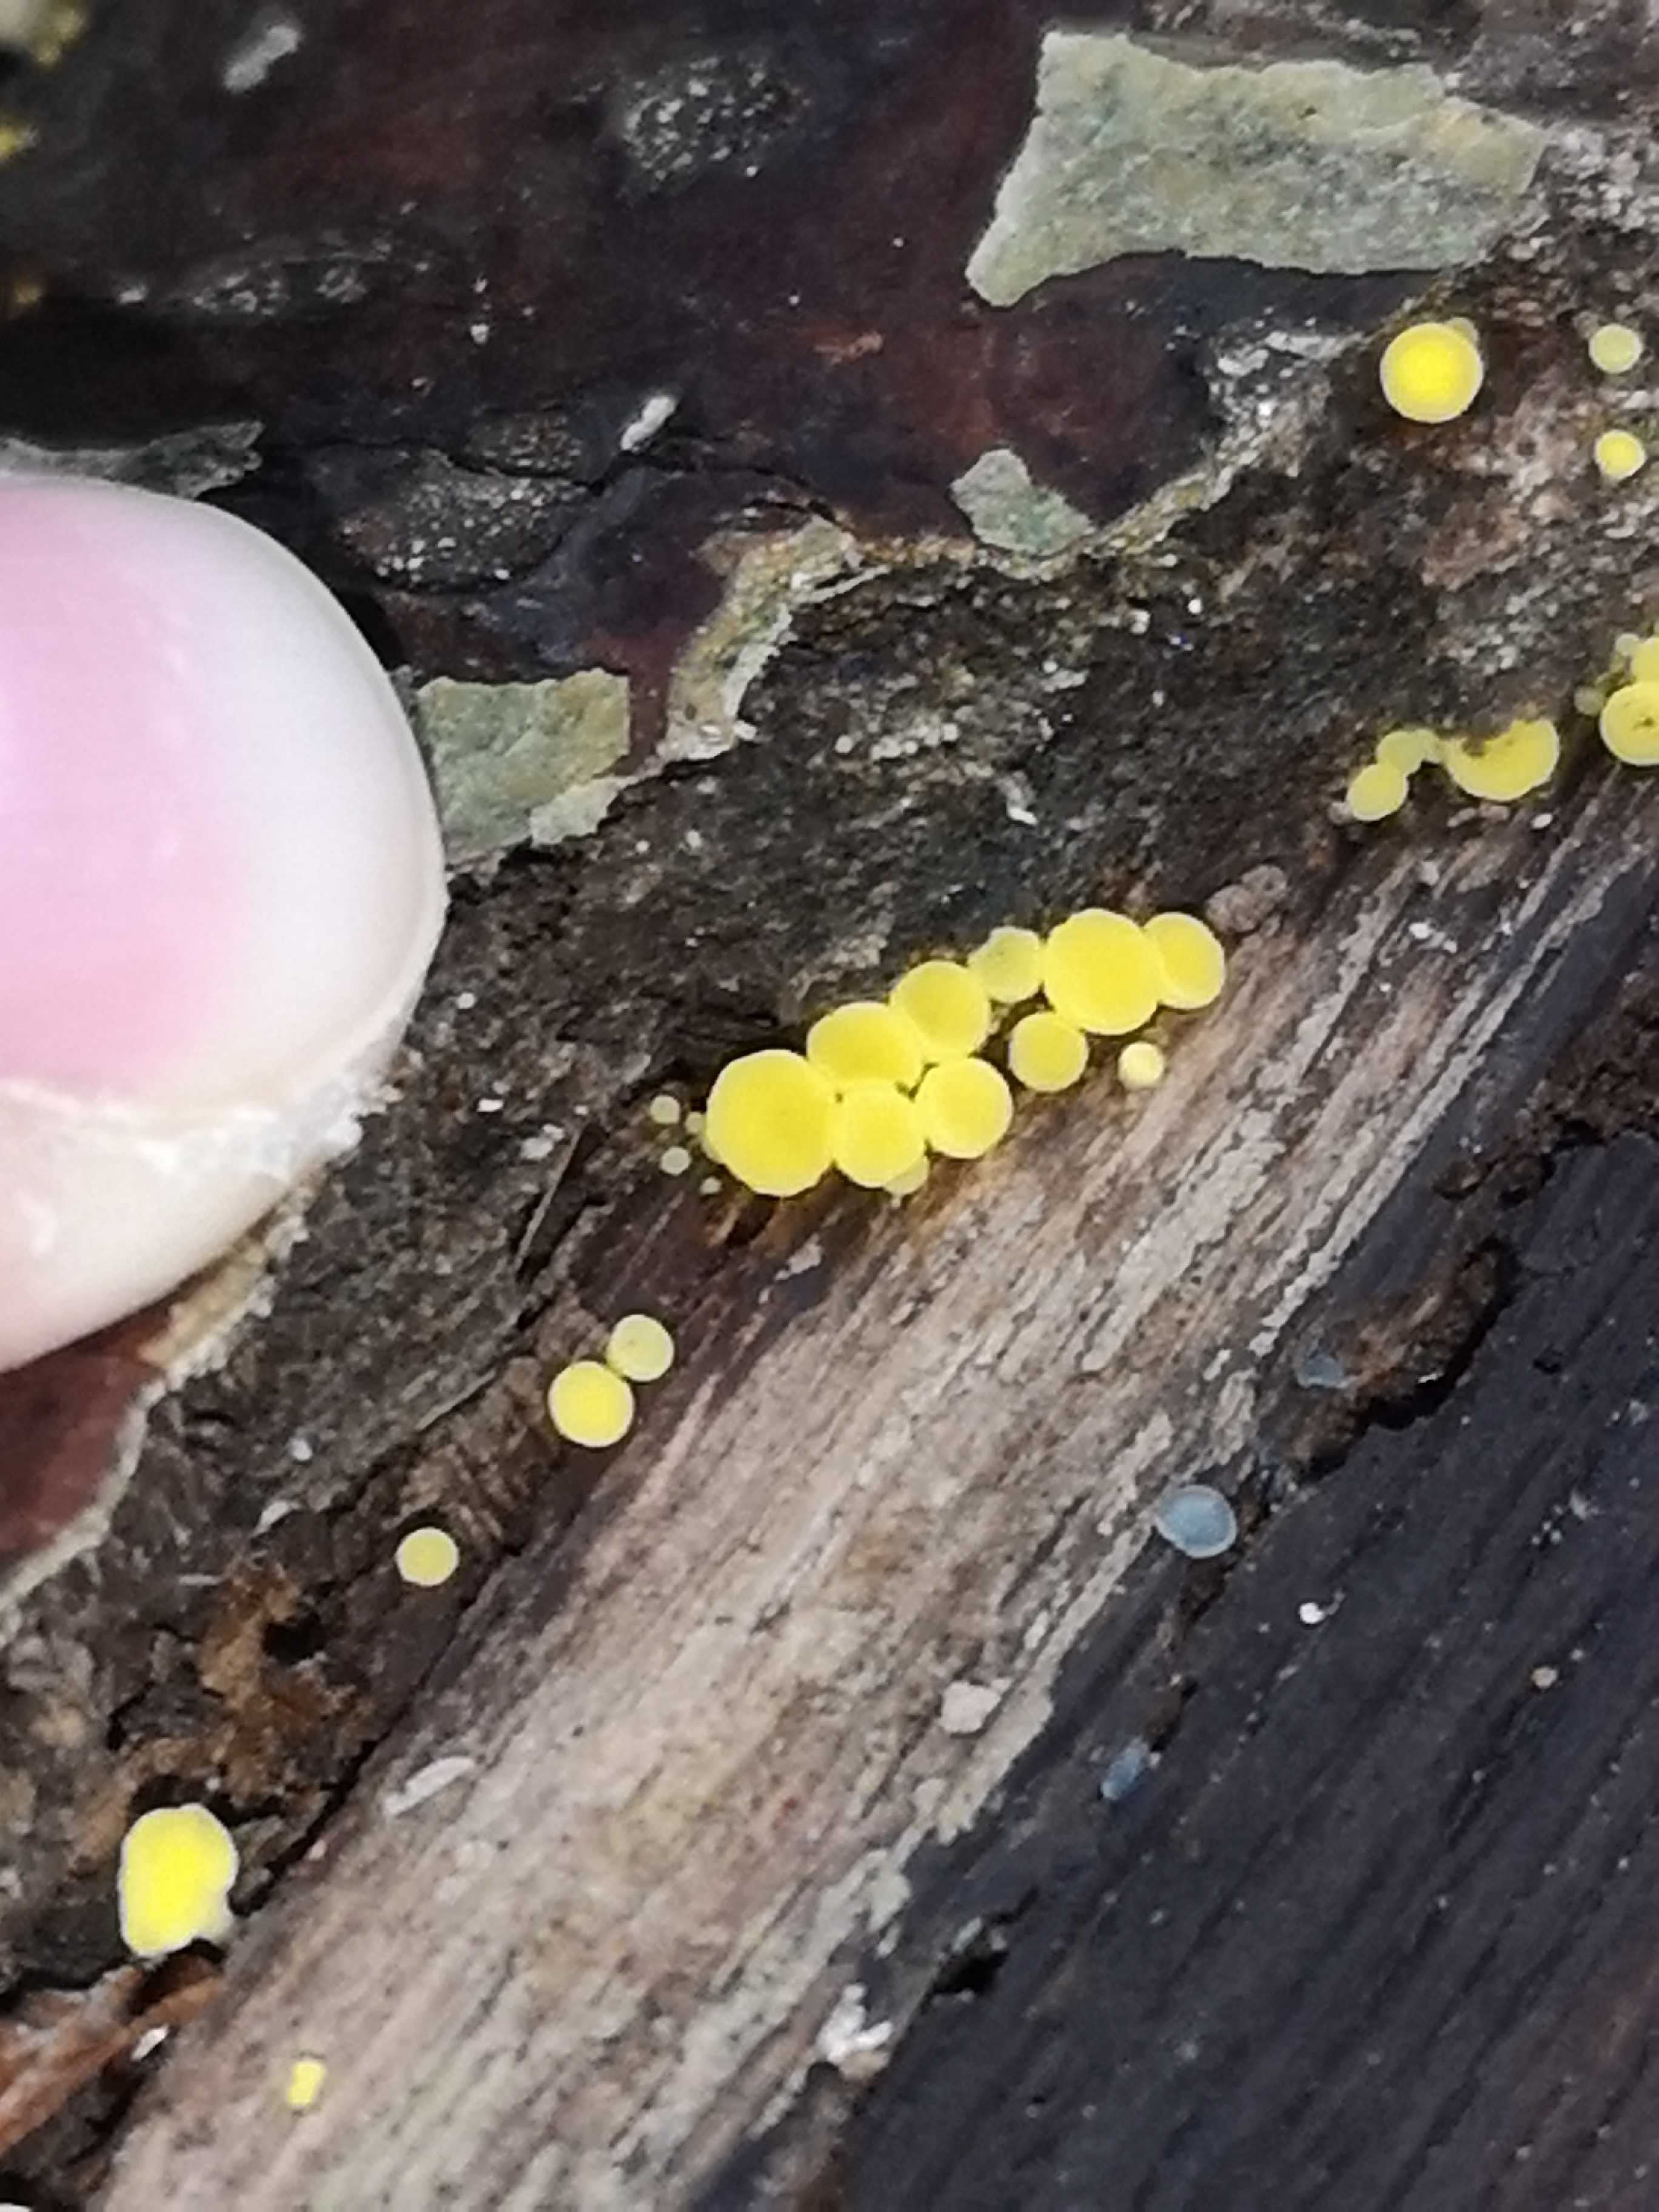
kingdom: Fungi
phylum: Ascomycota
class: Leotiomycetes
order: Helotiales
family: Pezizellaceae
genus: Calycina
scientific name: Calycina citrina
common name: almindelig gulskive
